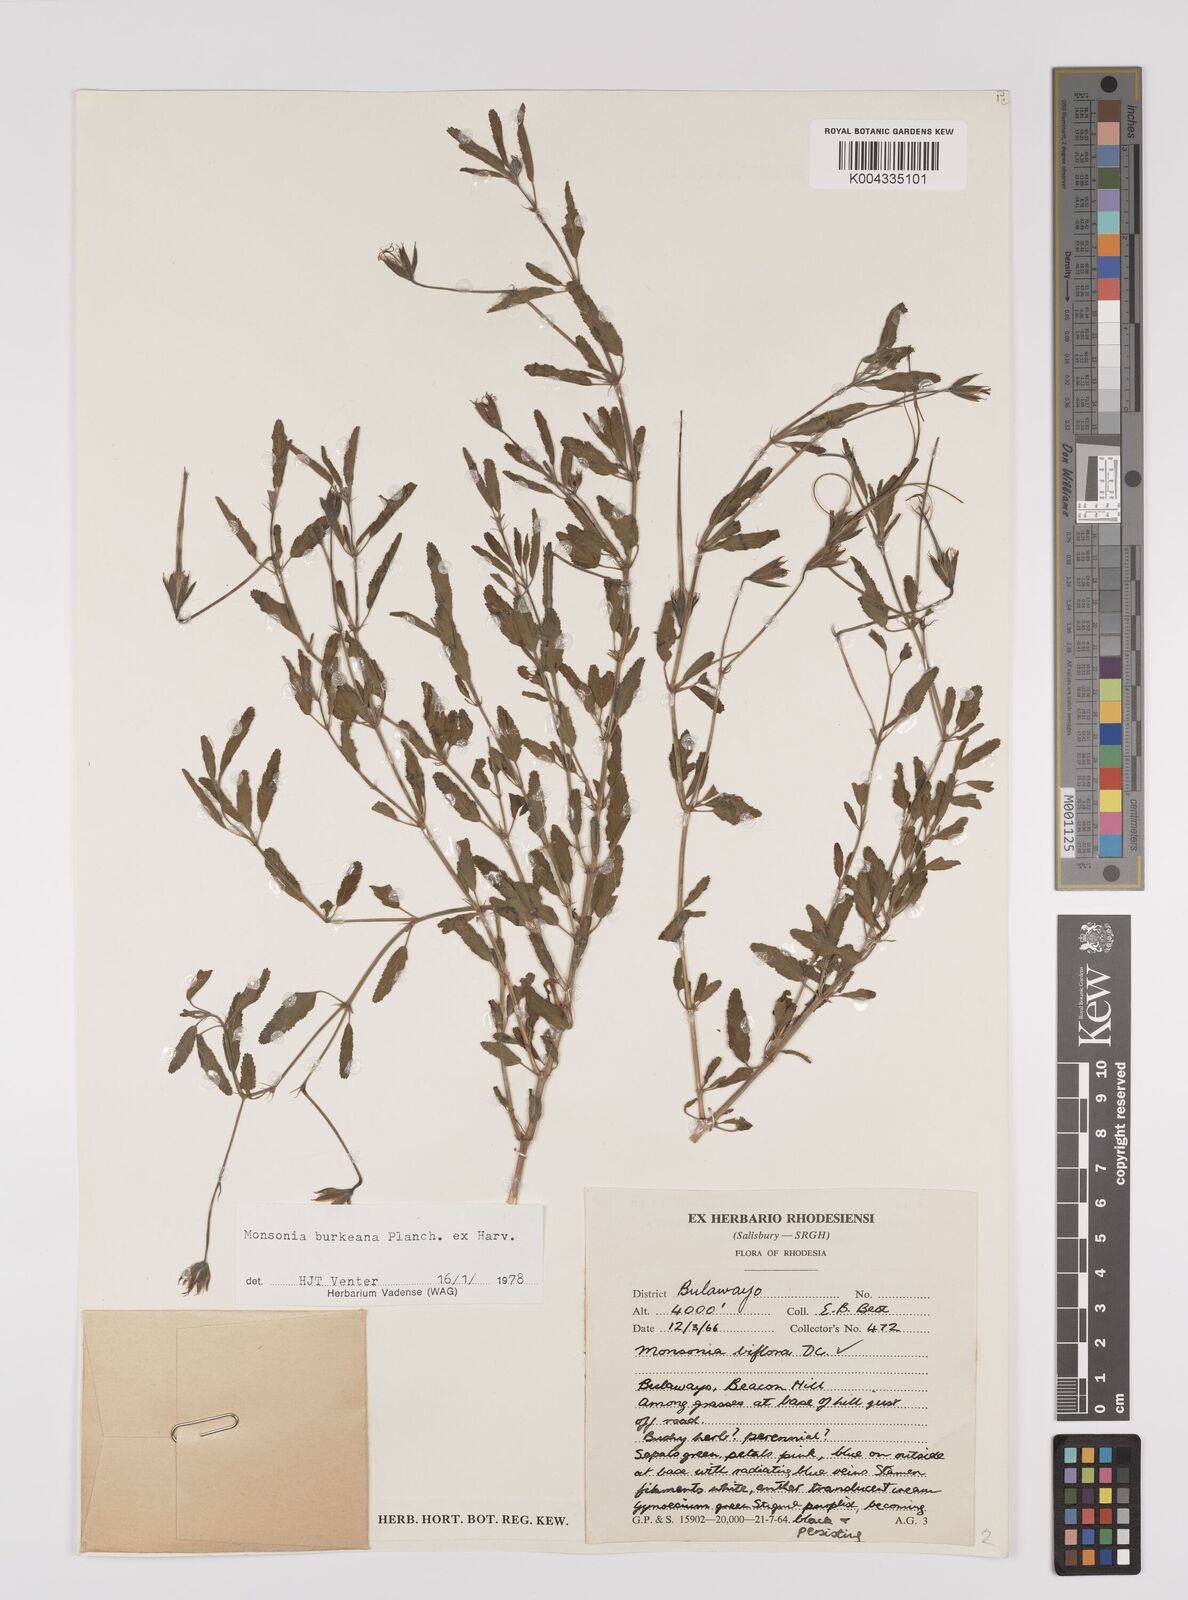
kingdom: Plantae
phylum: Tracheophyta
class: Magnoliopsida
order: Geraniales
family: Geraniaceae
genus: Monsonia
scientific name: Monsonia biflora
